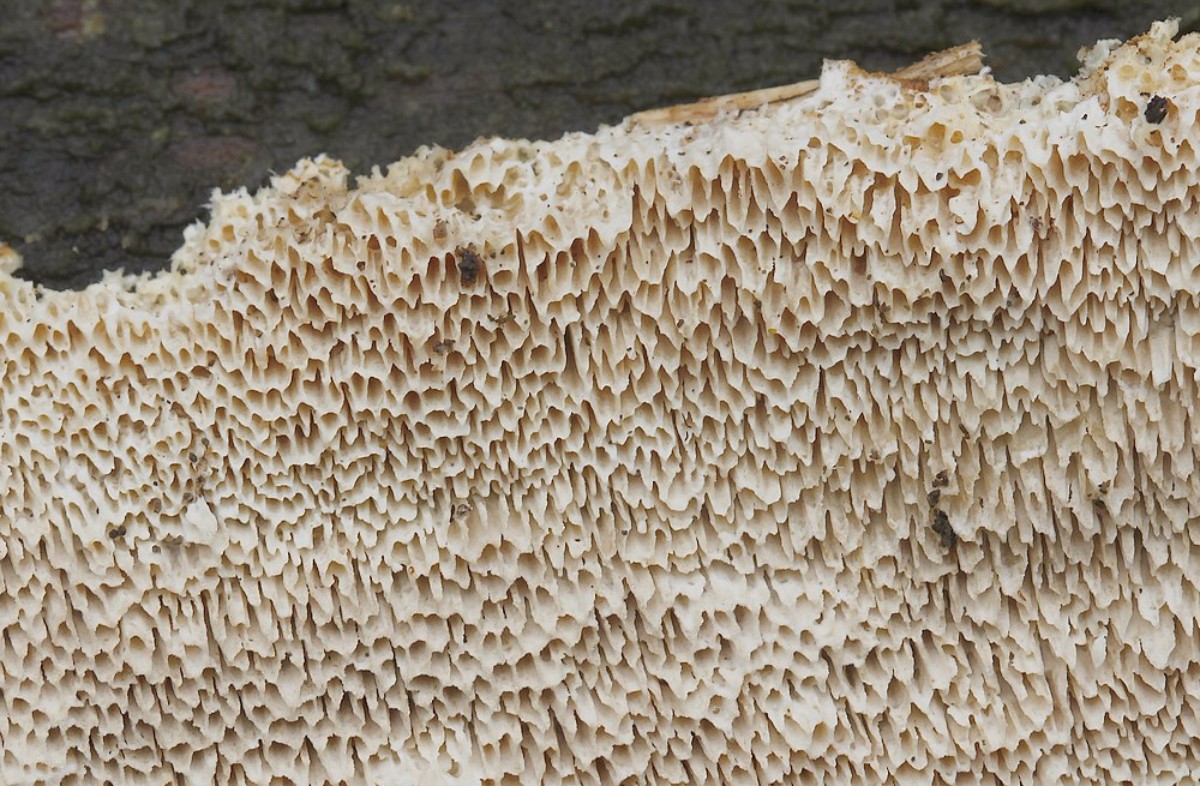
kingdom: Fungi
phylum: Basidiomycota
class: Agaricomycetes
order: Polyporales
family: Fomitopsidaceae
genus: Antrodia
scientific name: Antrodia sinuosa
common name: tømmer-sejporesvamp
